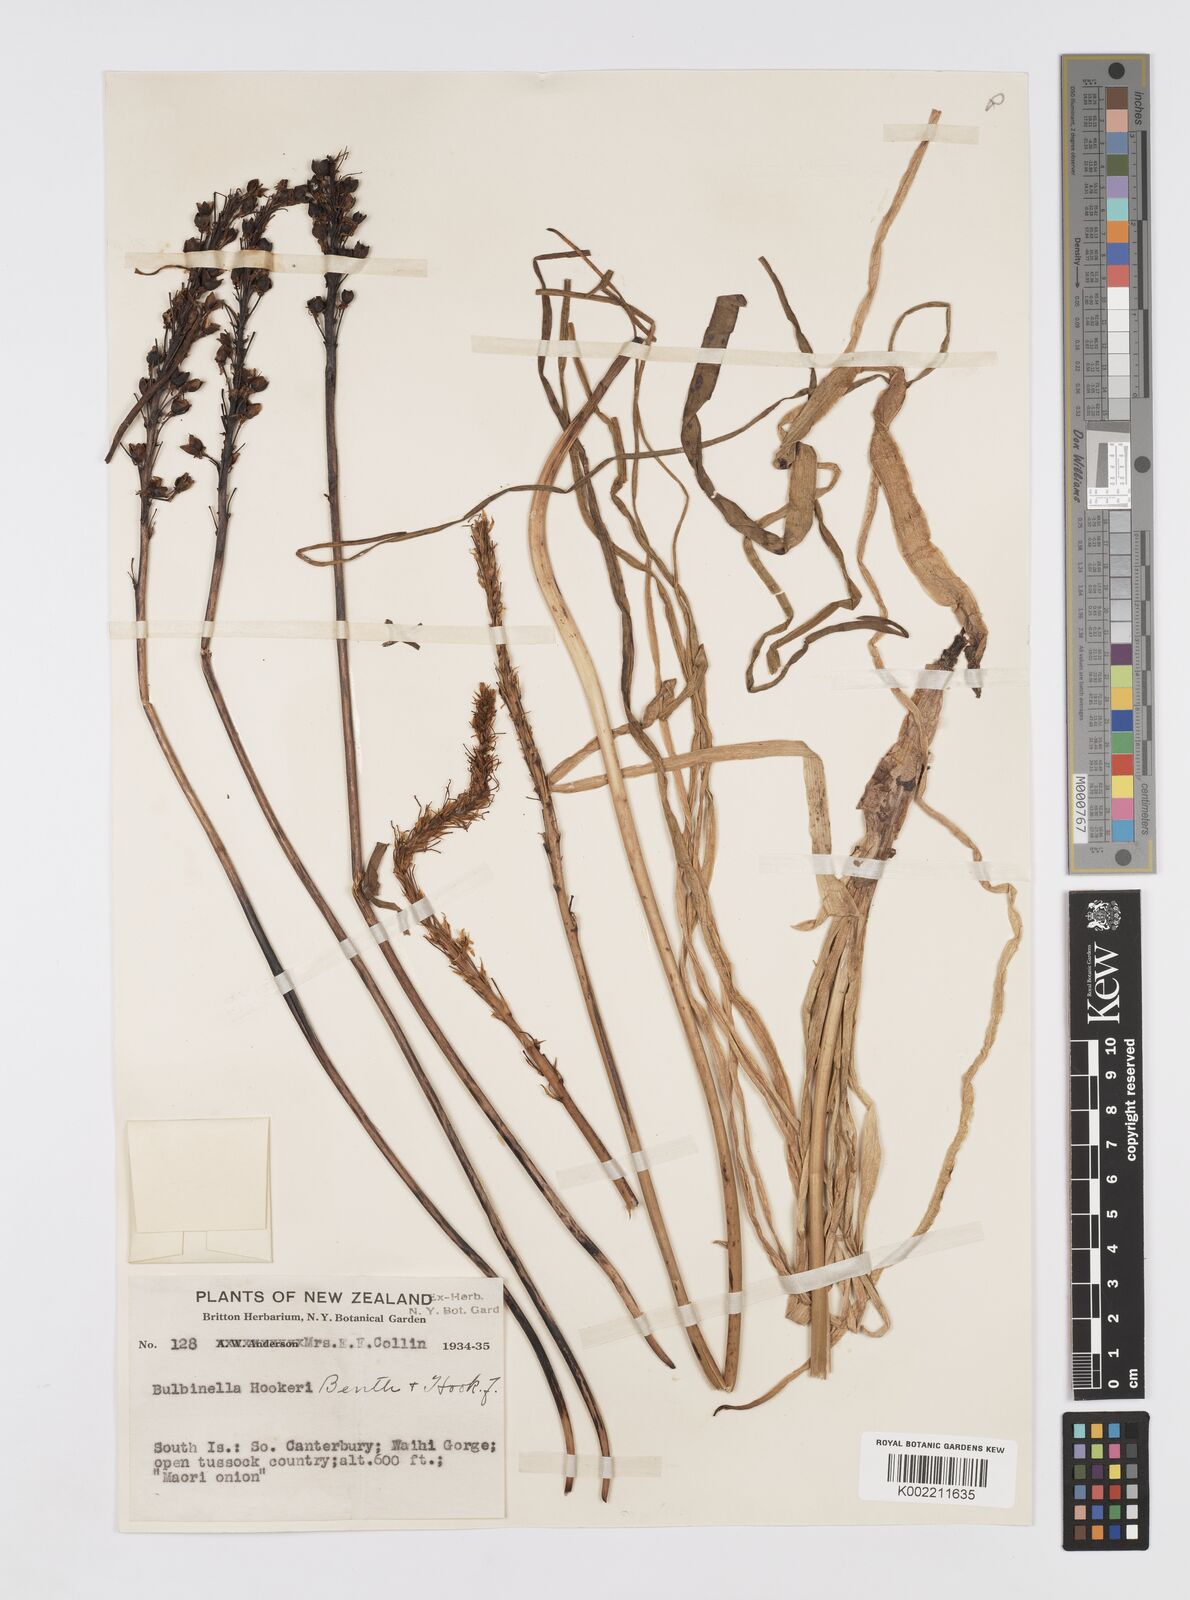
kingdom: Plantae
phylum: Tracheophyta
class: Liliopsida
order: Asparagales
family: Asphodelaceae
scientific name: Asphodelaceae
